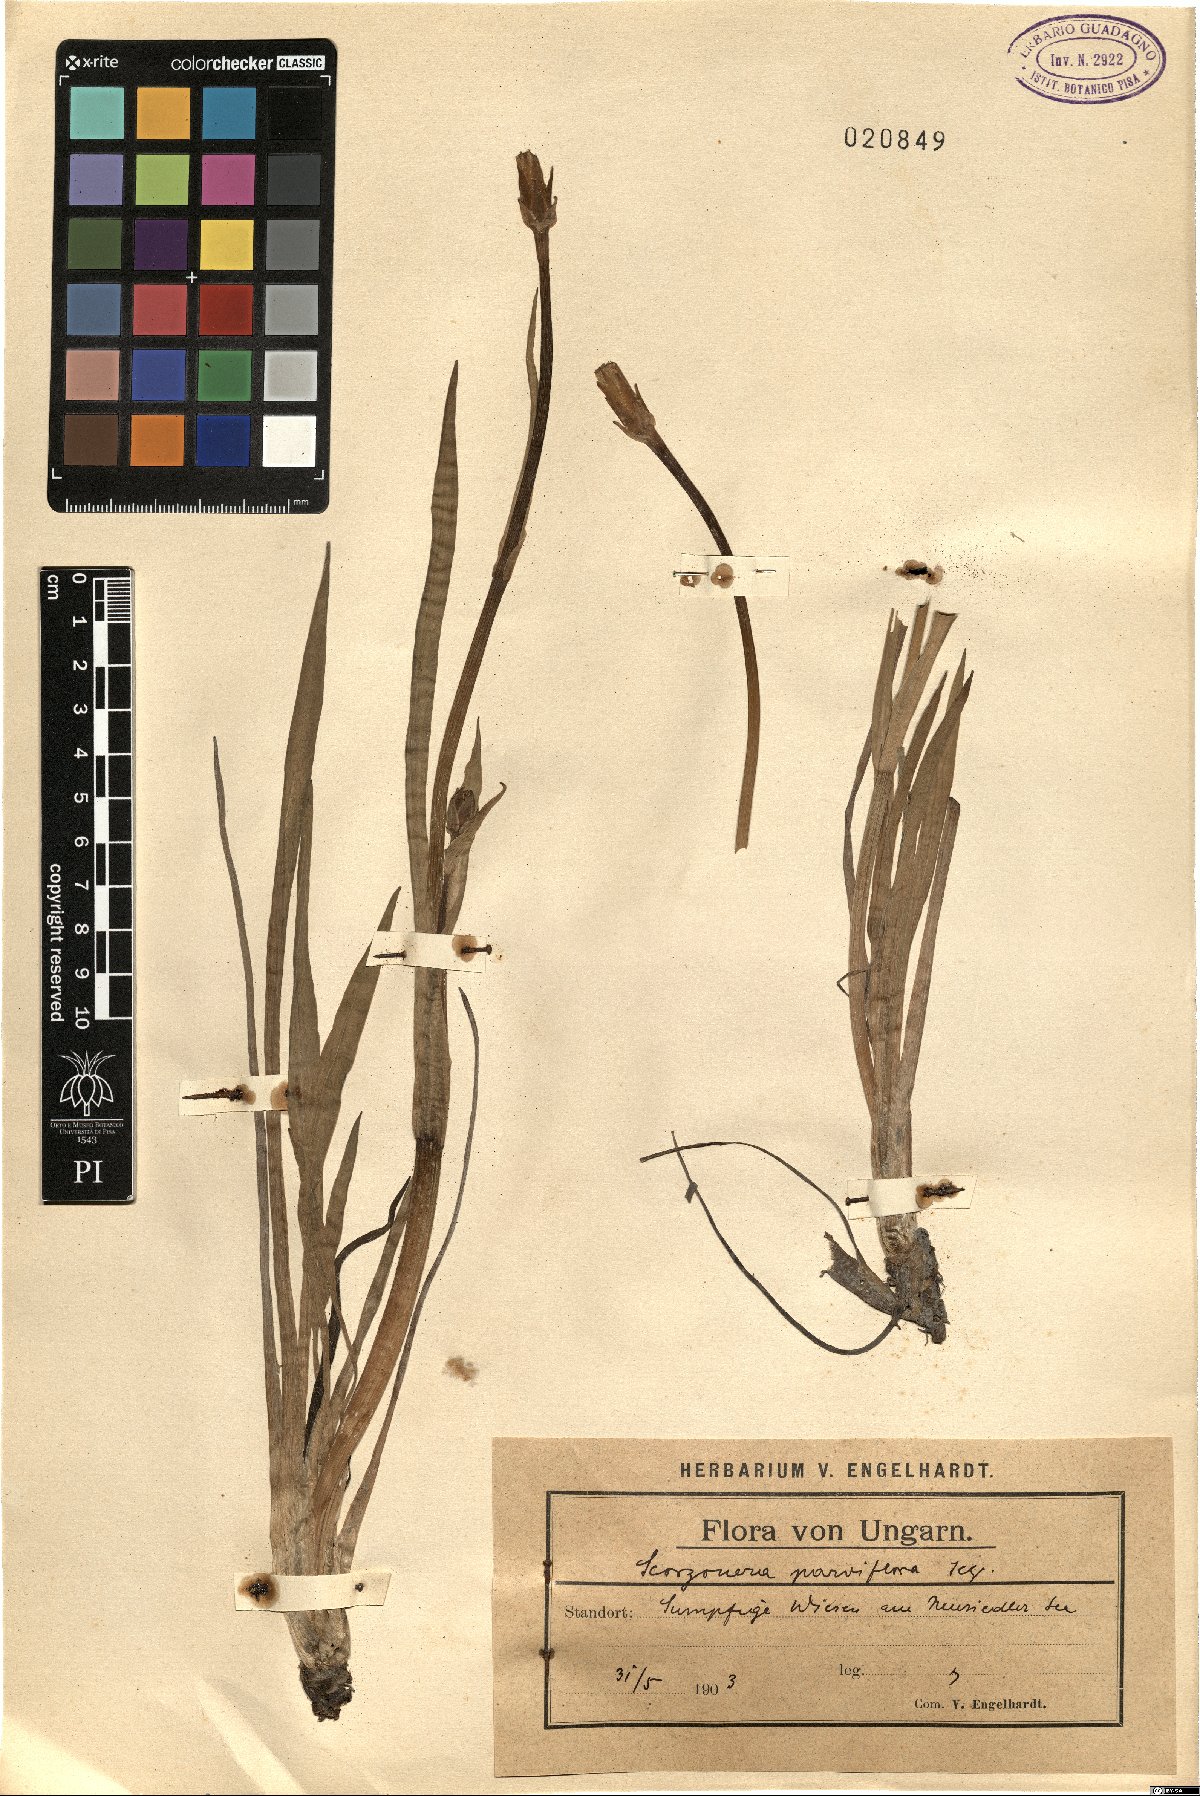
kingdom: Plantae
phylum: Tracheophyta
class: Magnoliopsida
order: Asterales
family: Asteraceae
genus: Scorzonera
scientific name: Scorzonera parviflora
